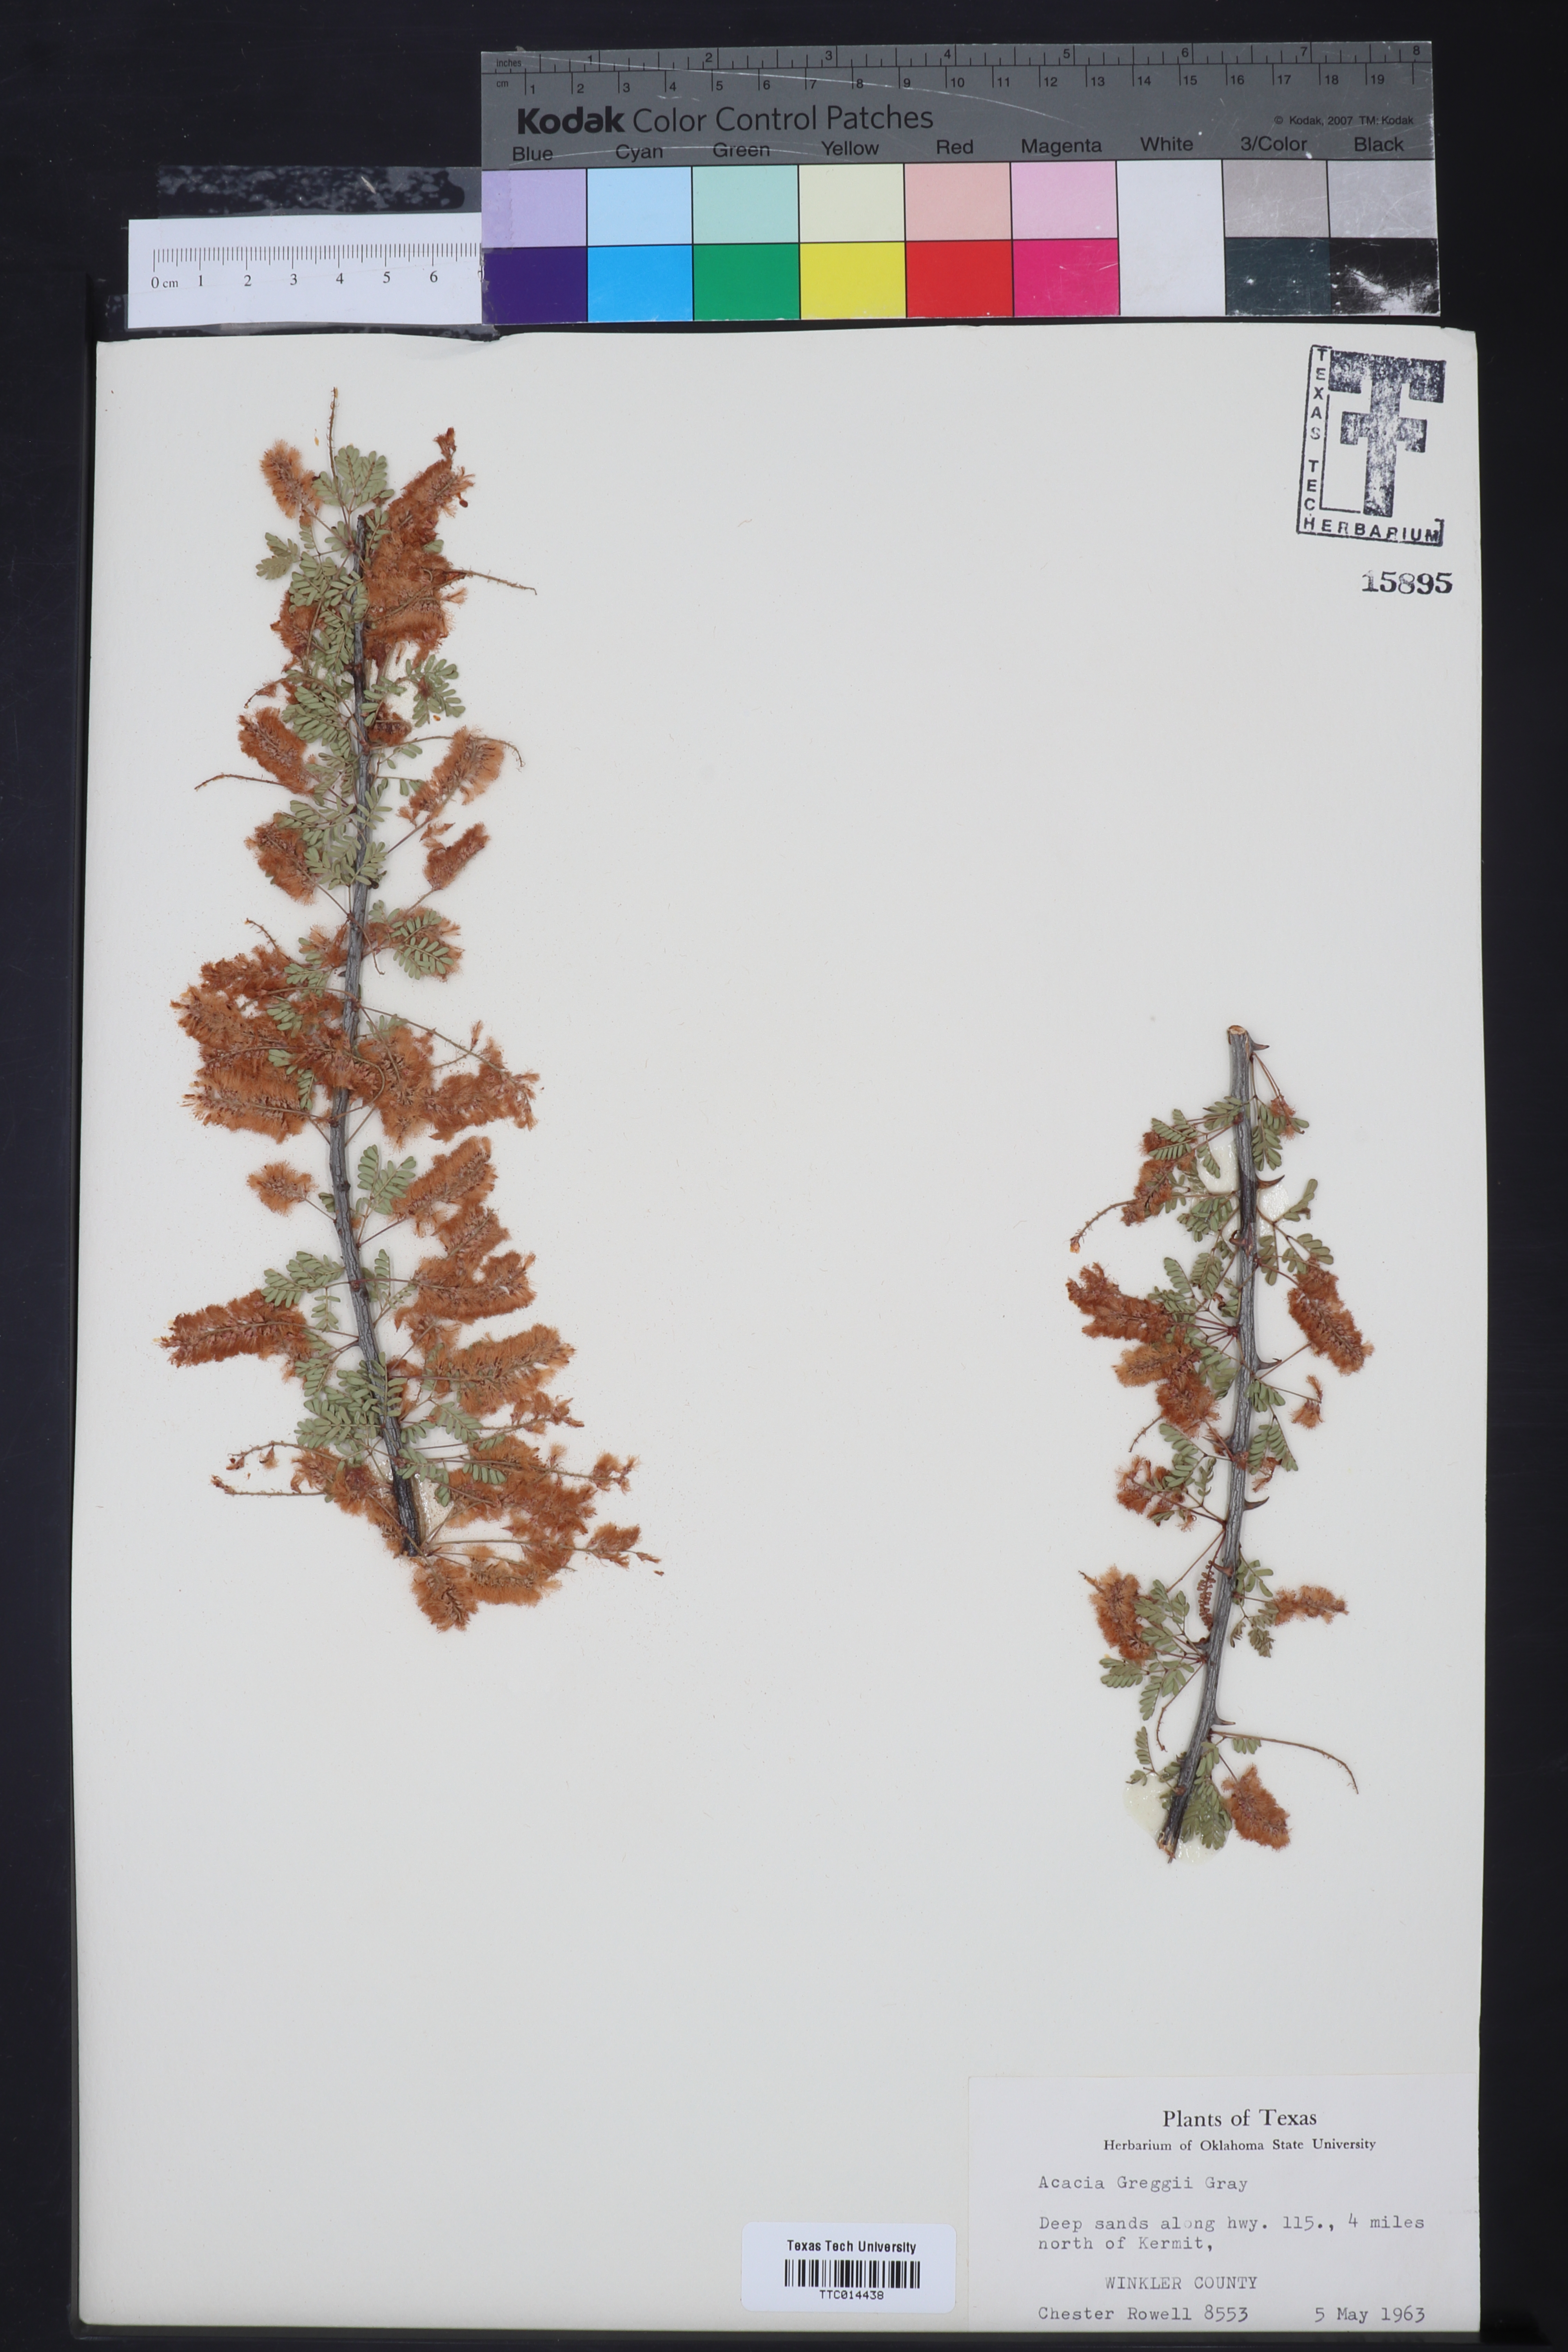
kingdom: Plantae
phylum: Tracheophyta
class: Magnoliopsida
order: Fabales
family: Fabaceae
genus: Senegalia
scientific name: Senegalia greggii
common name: Texas-mimosa
